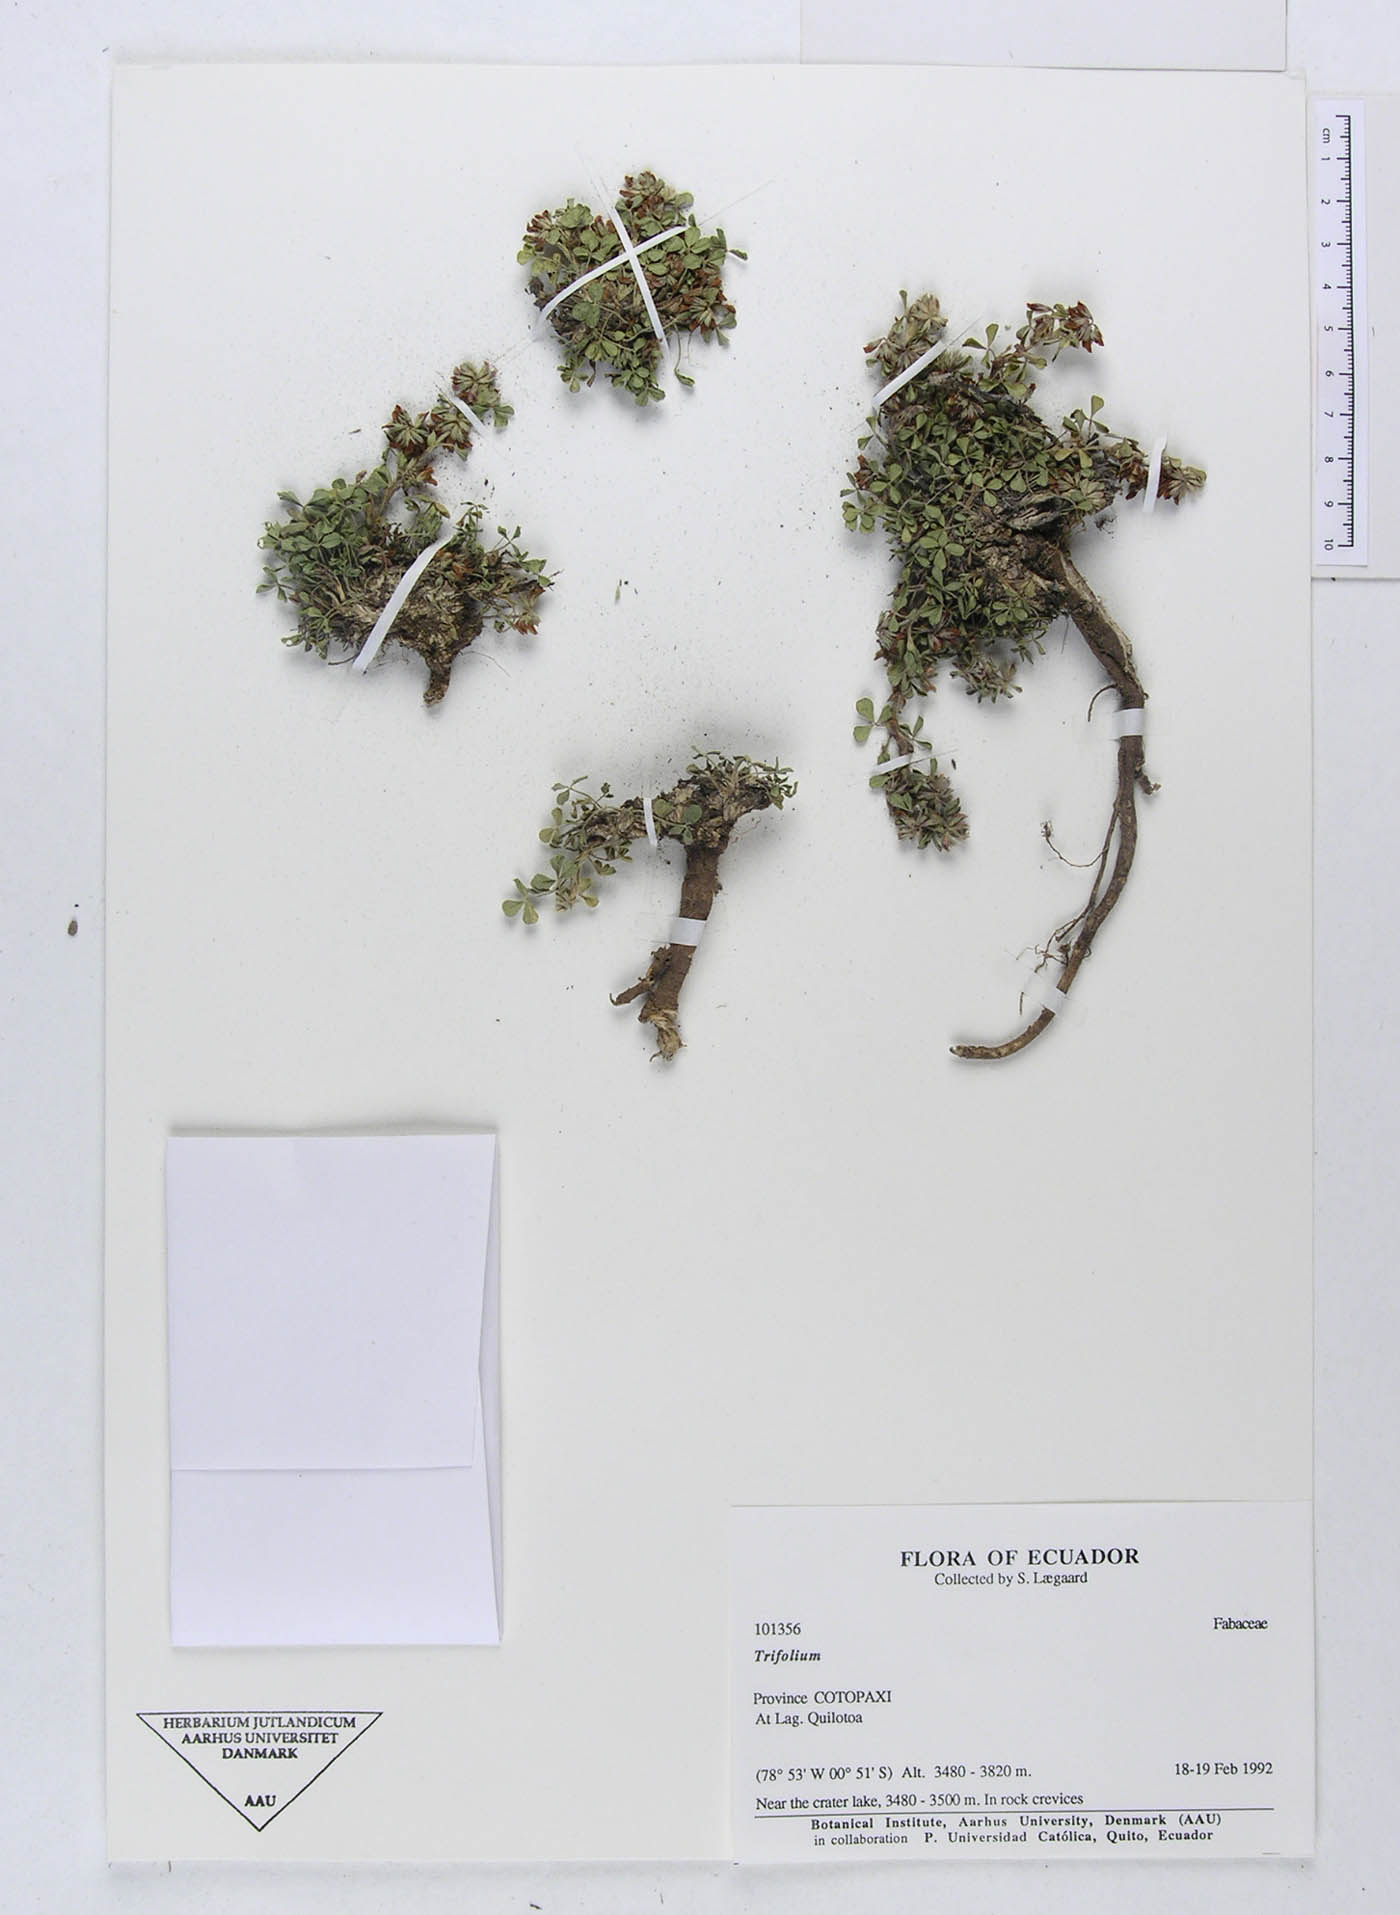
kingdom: Plantae
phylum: Tracheophyta
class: Magnoliopsida
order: Fabales
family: Fabaceae
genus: Trifolium
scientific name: Trifolium
